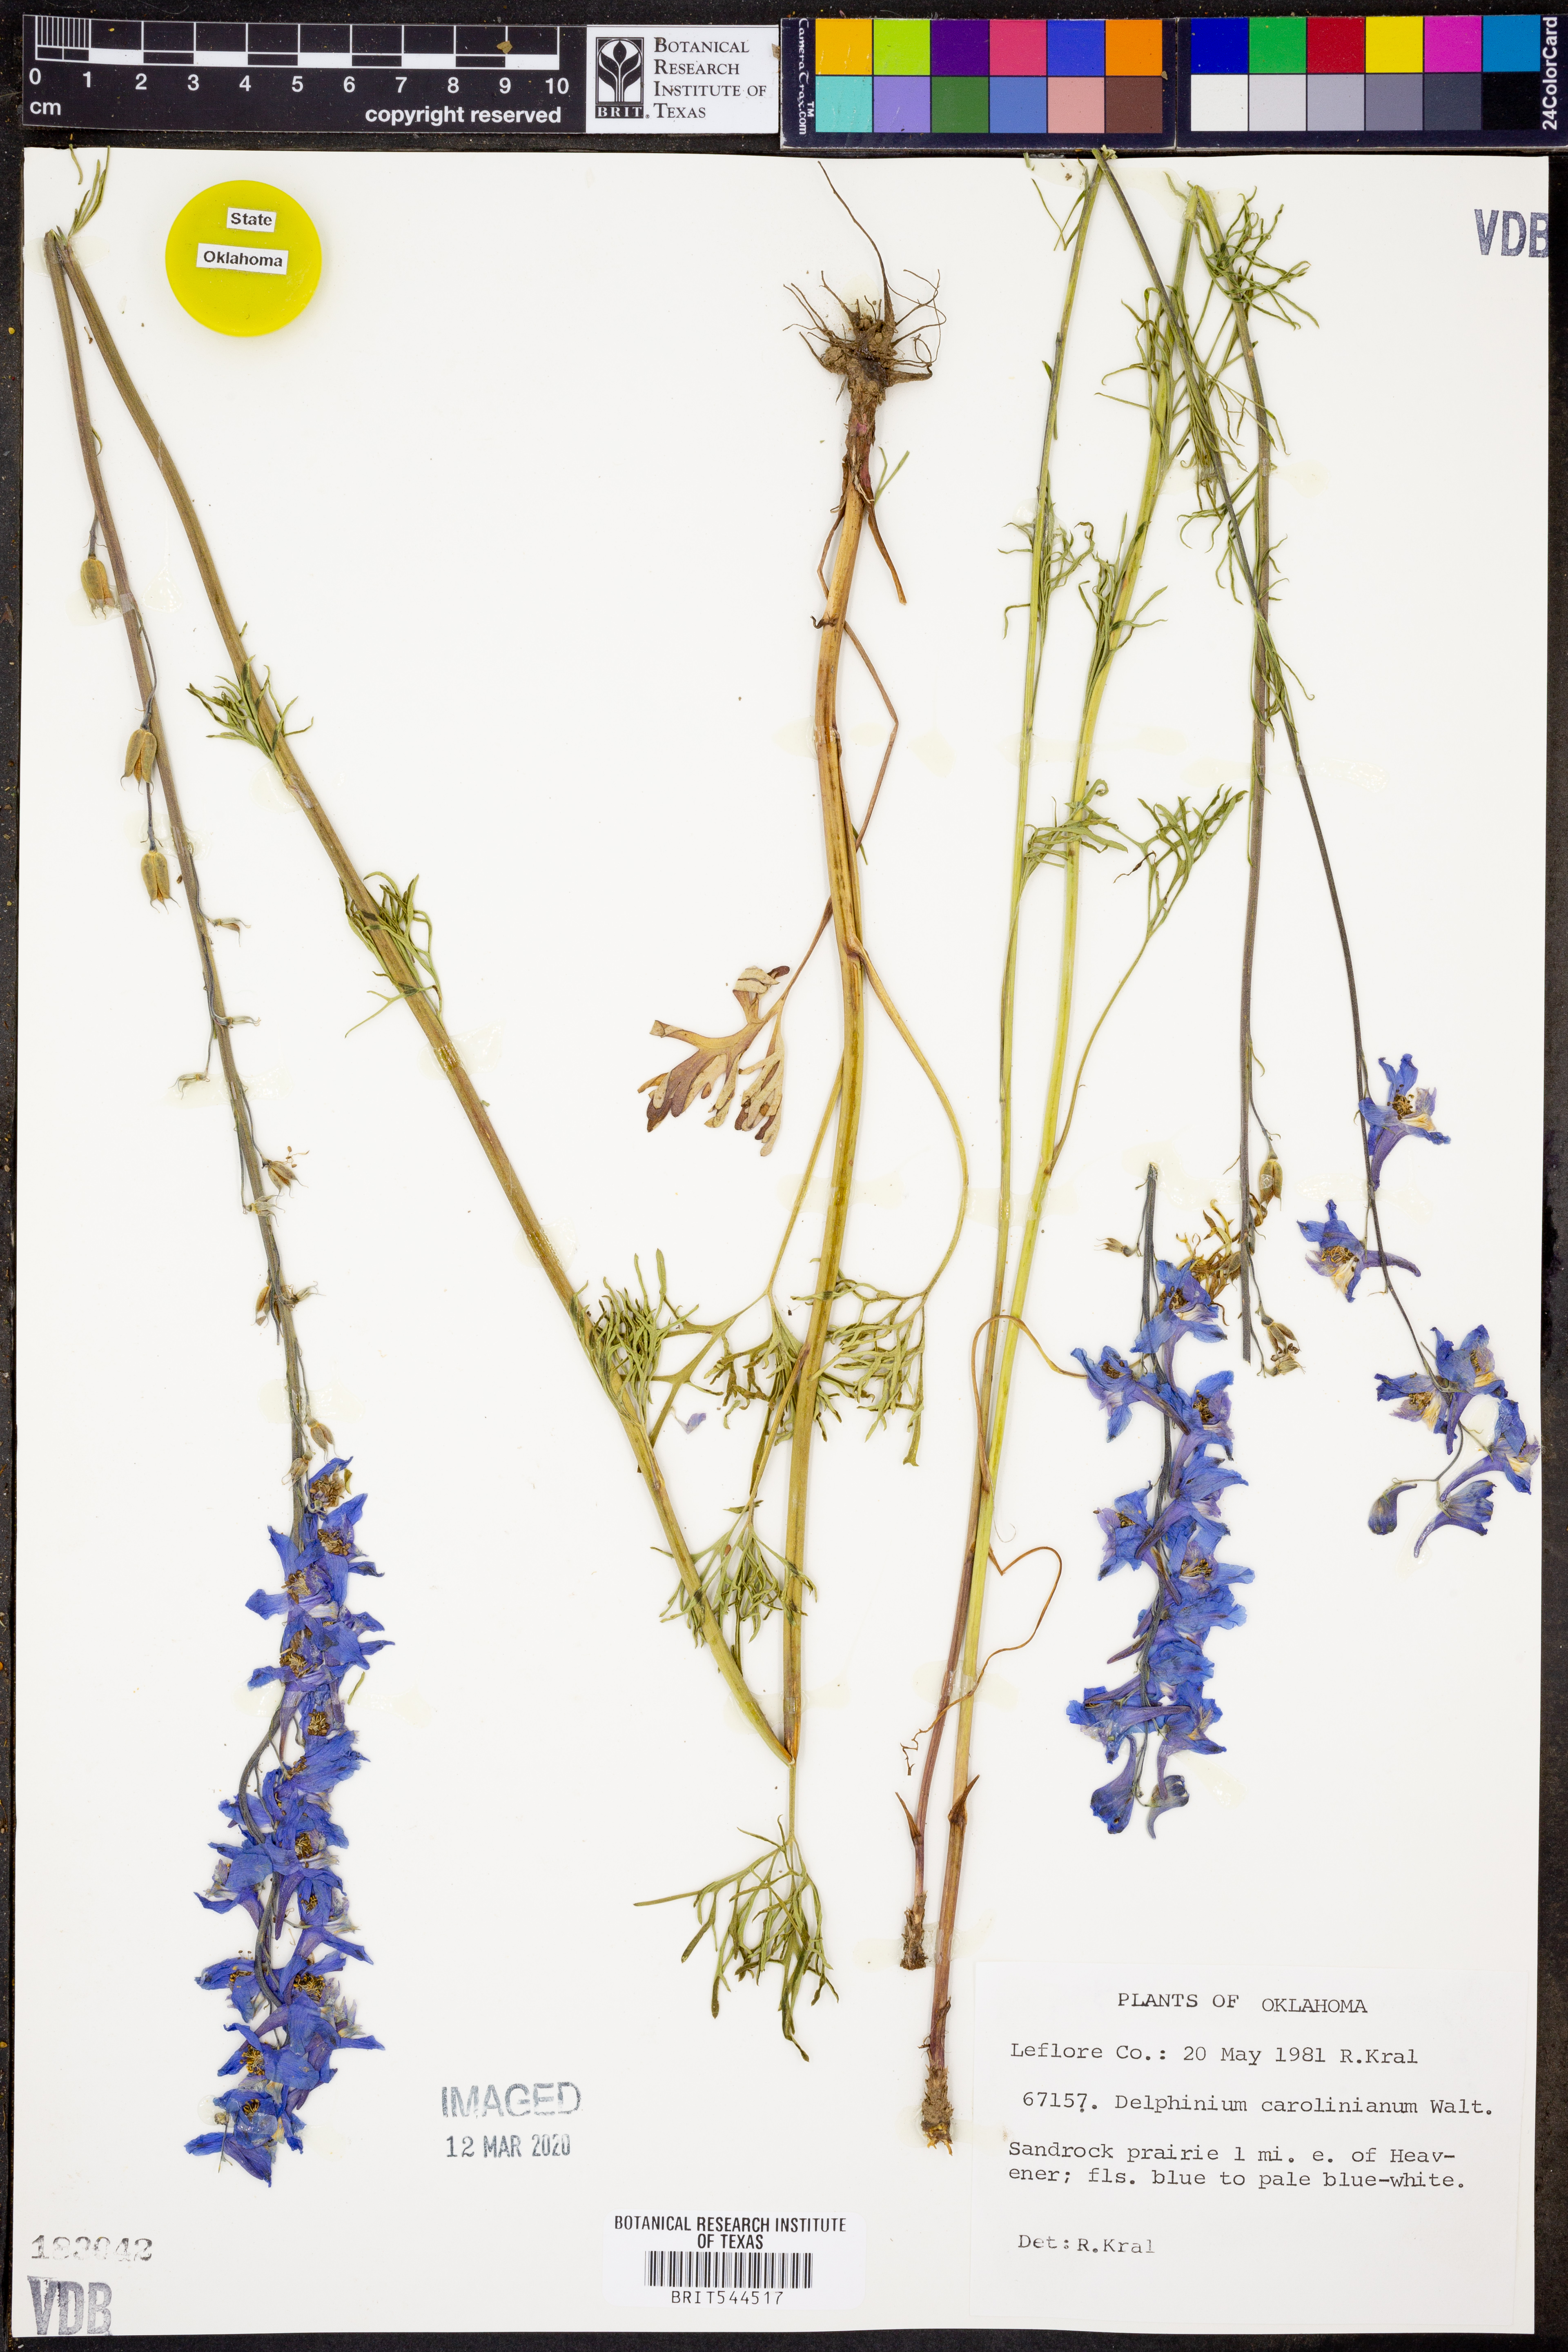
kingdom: Plantae
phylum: Tracheophyta
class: Magnoliopsida
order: Ranunculales
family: Ranunculaceae
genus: Delphinium
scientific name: Delphinium carolinianum
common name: Carolina larkspur
